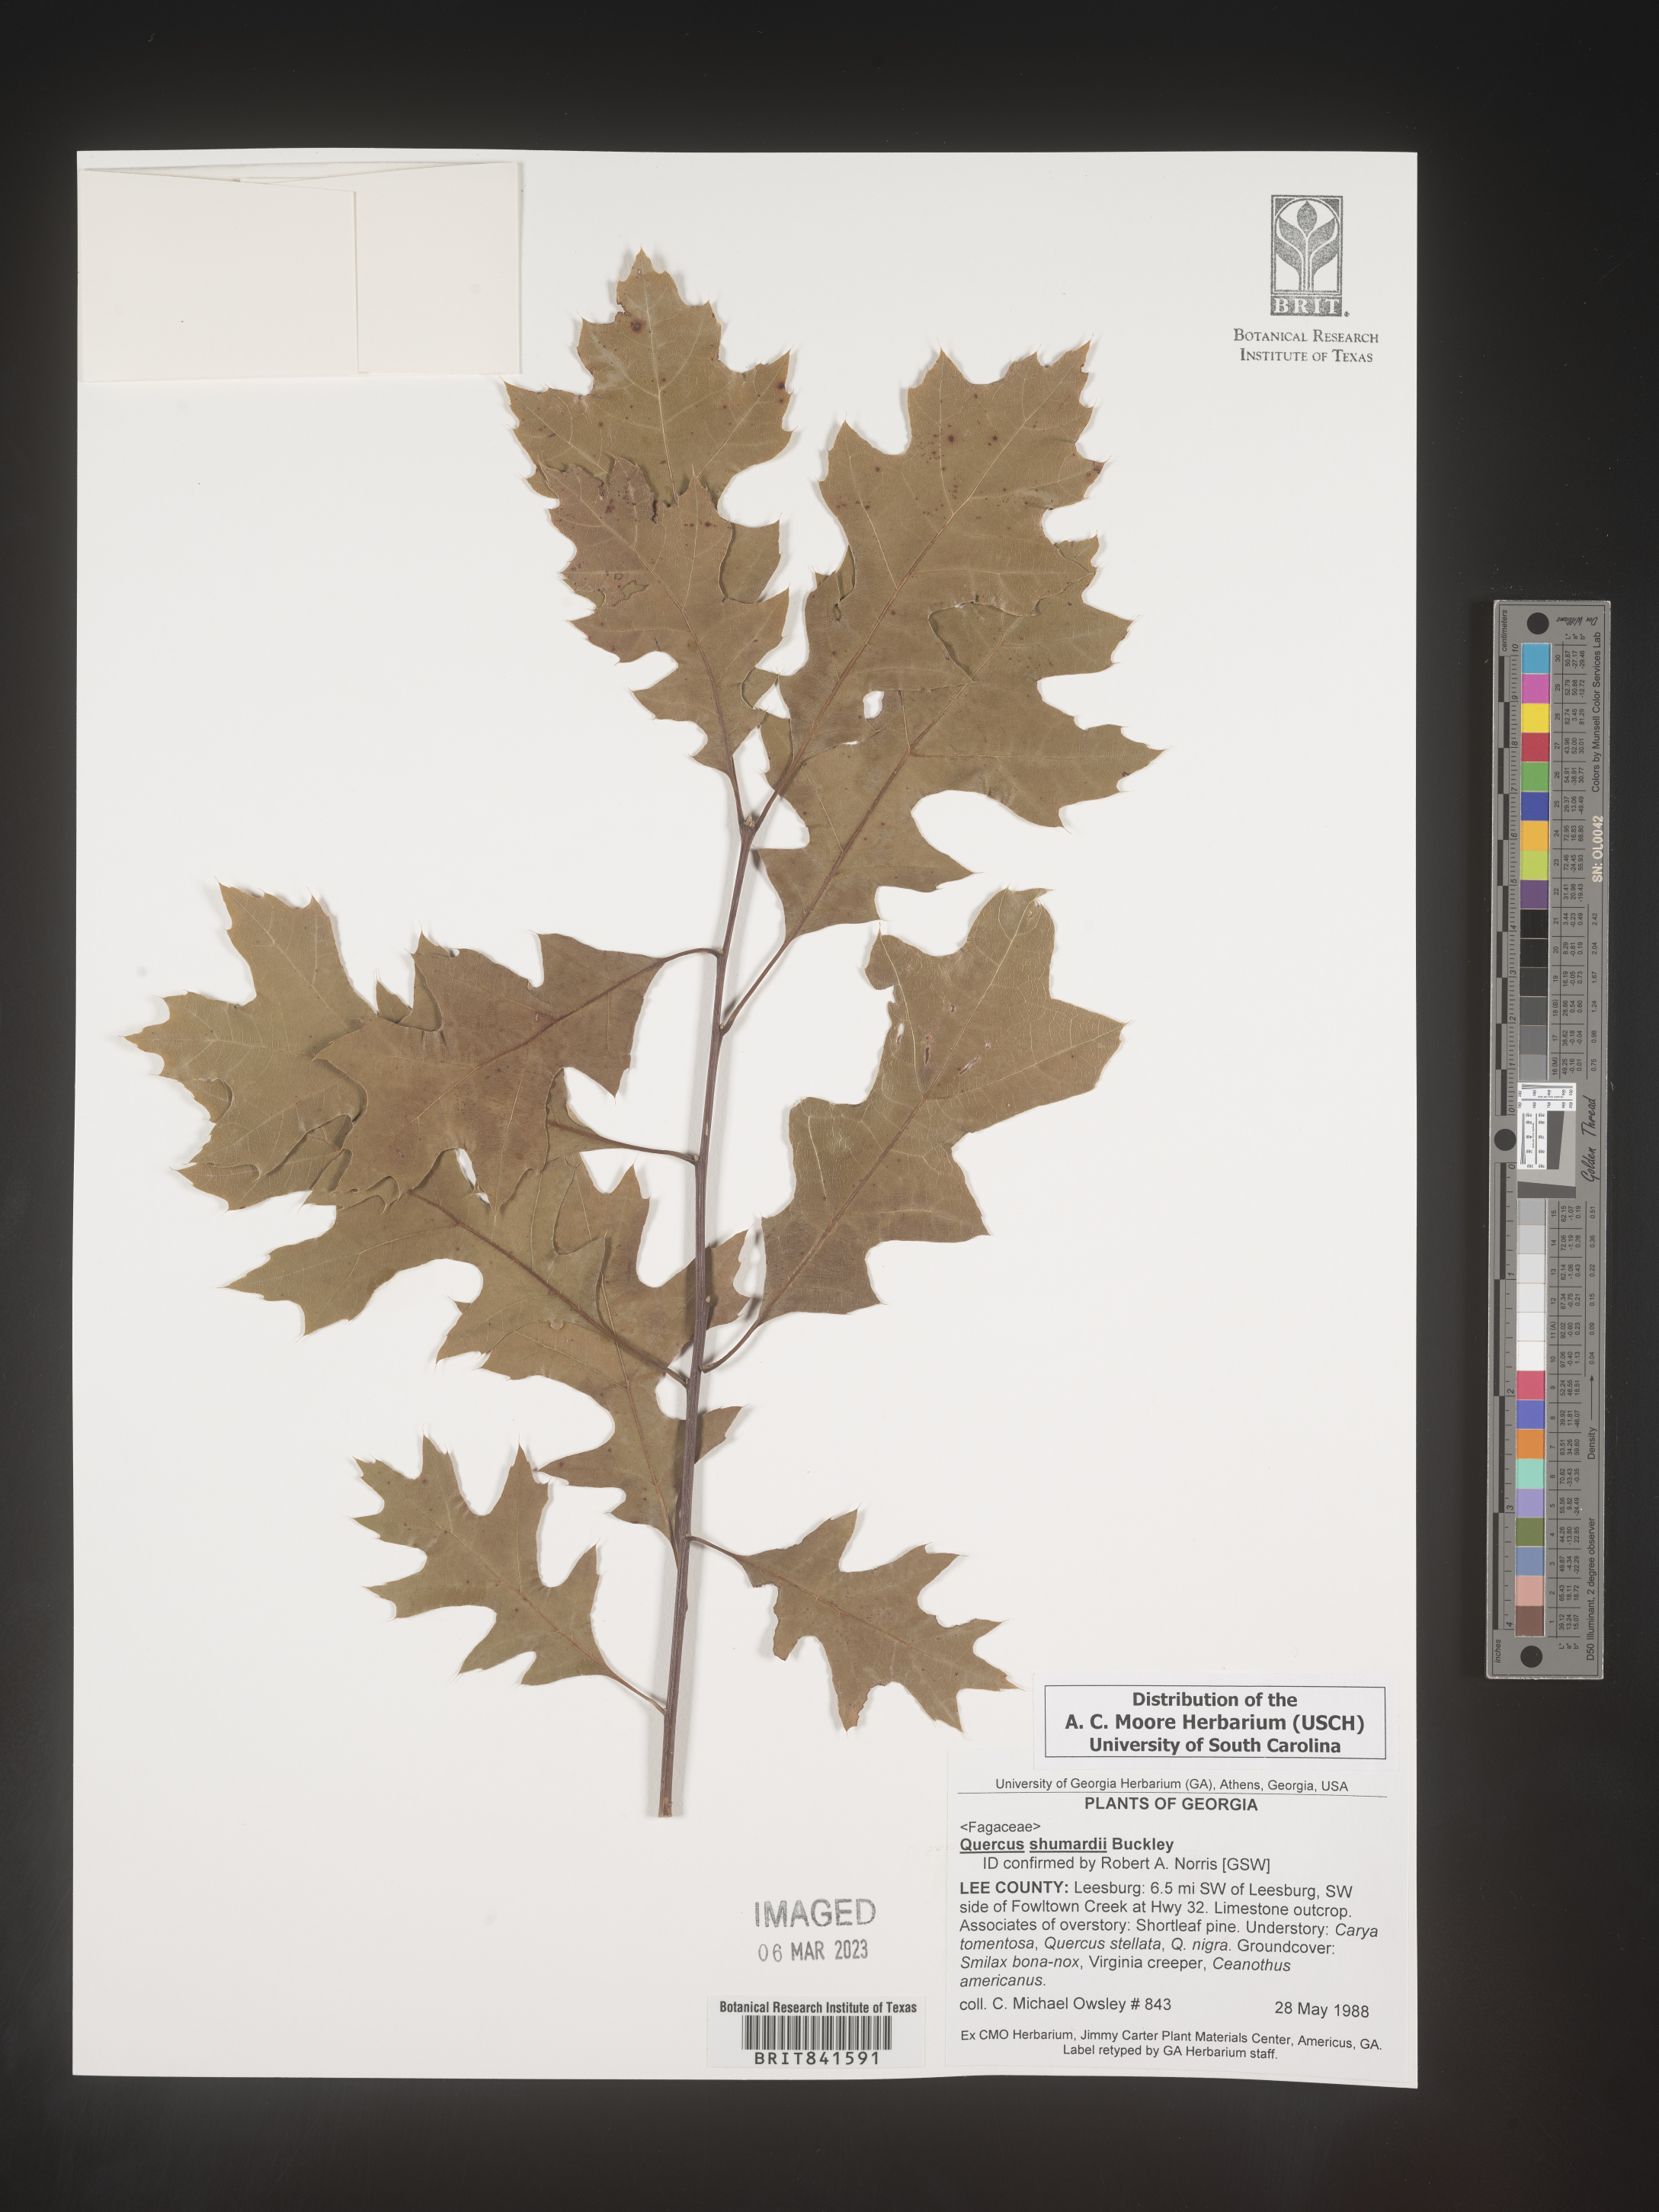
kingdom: Plantae
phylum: Tracheophyta
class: Magnoliopsida
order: Fagales
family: Fagaceae
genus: Quercus
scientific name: Quercus shumardii
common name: Shumard oak
